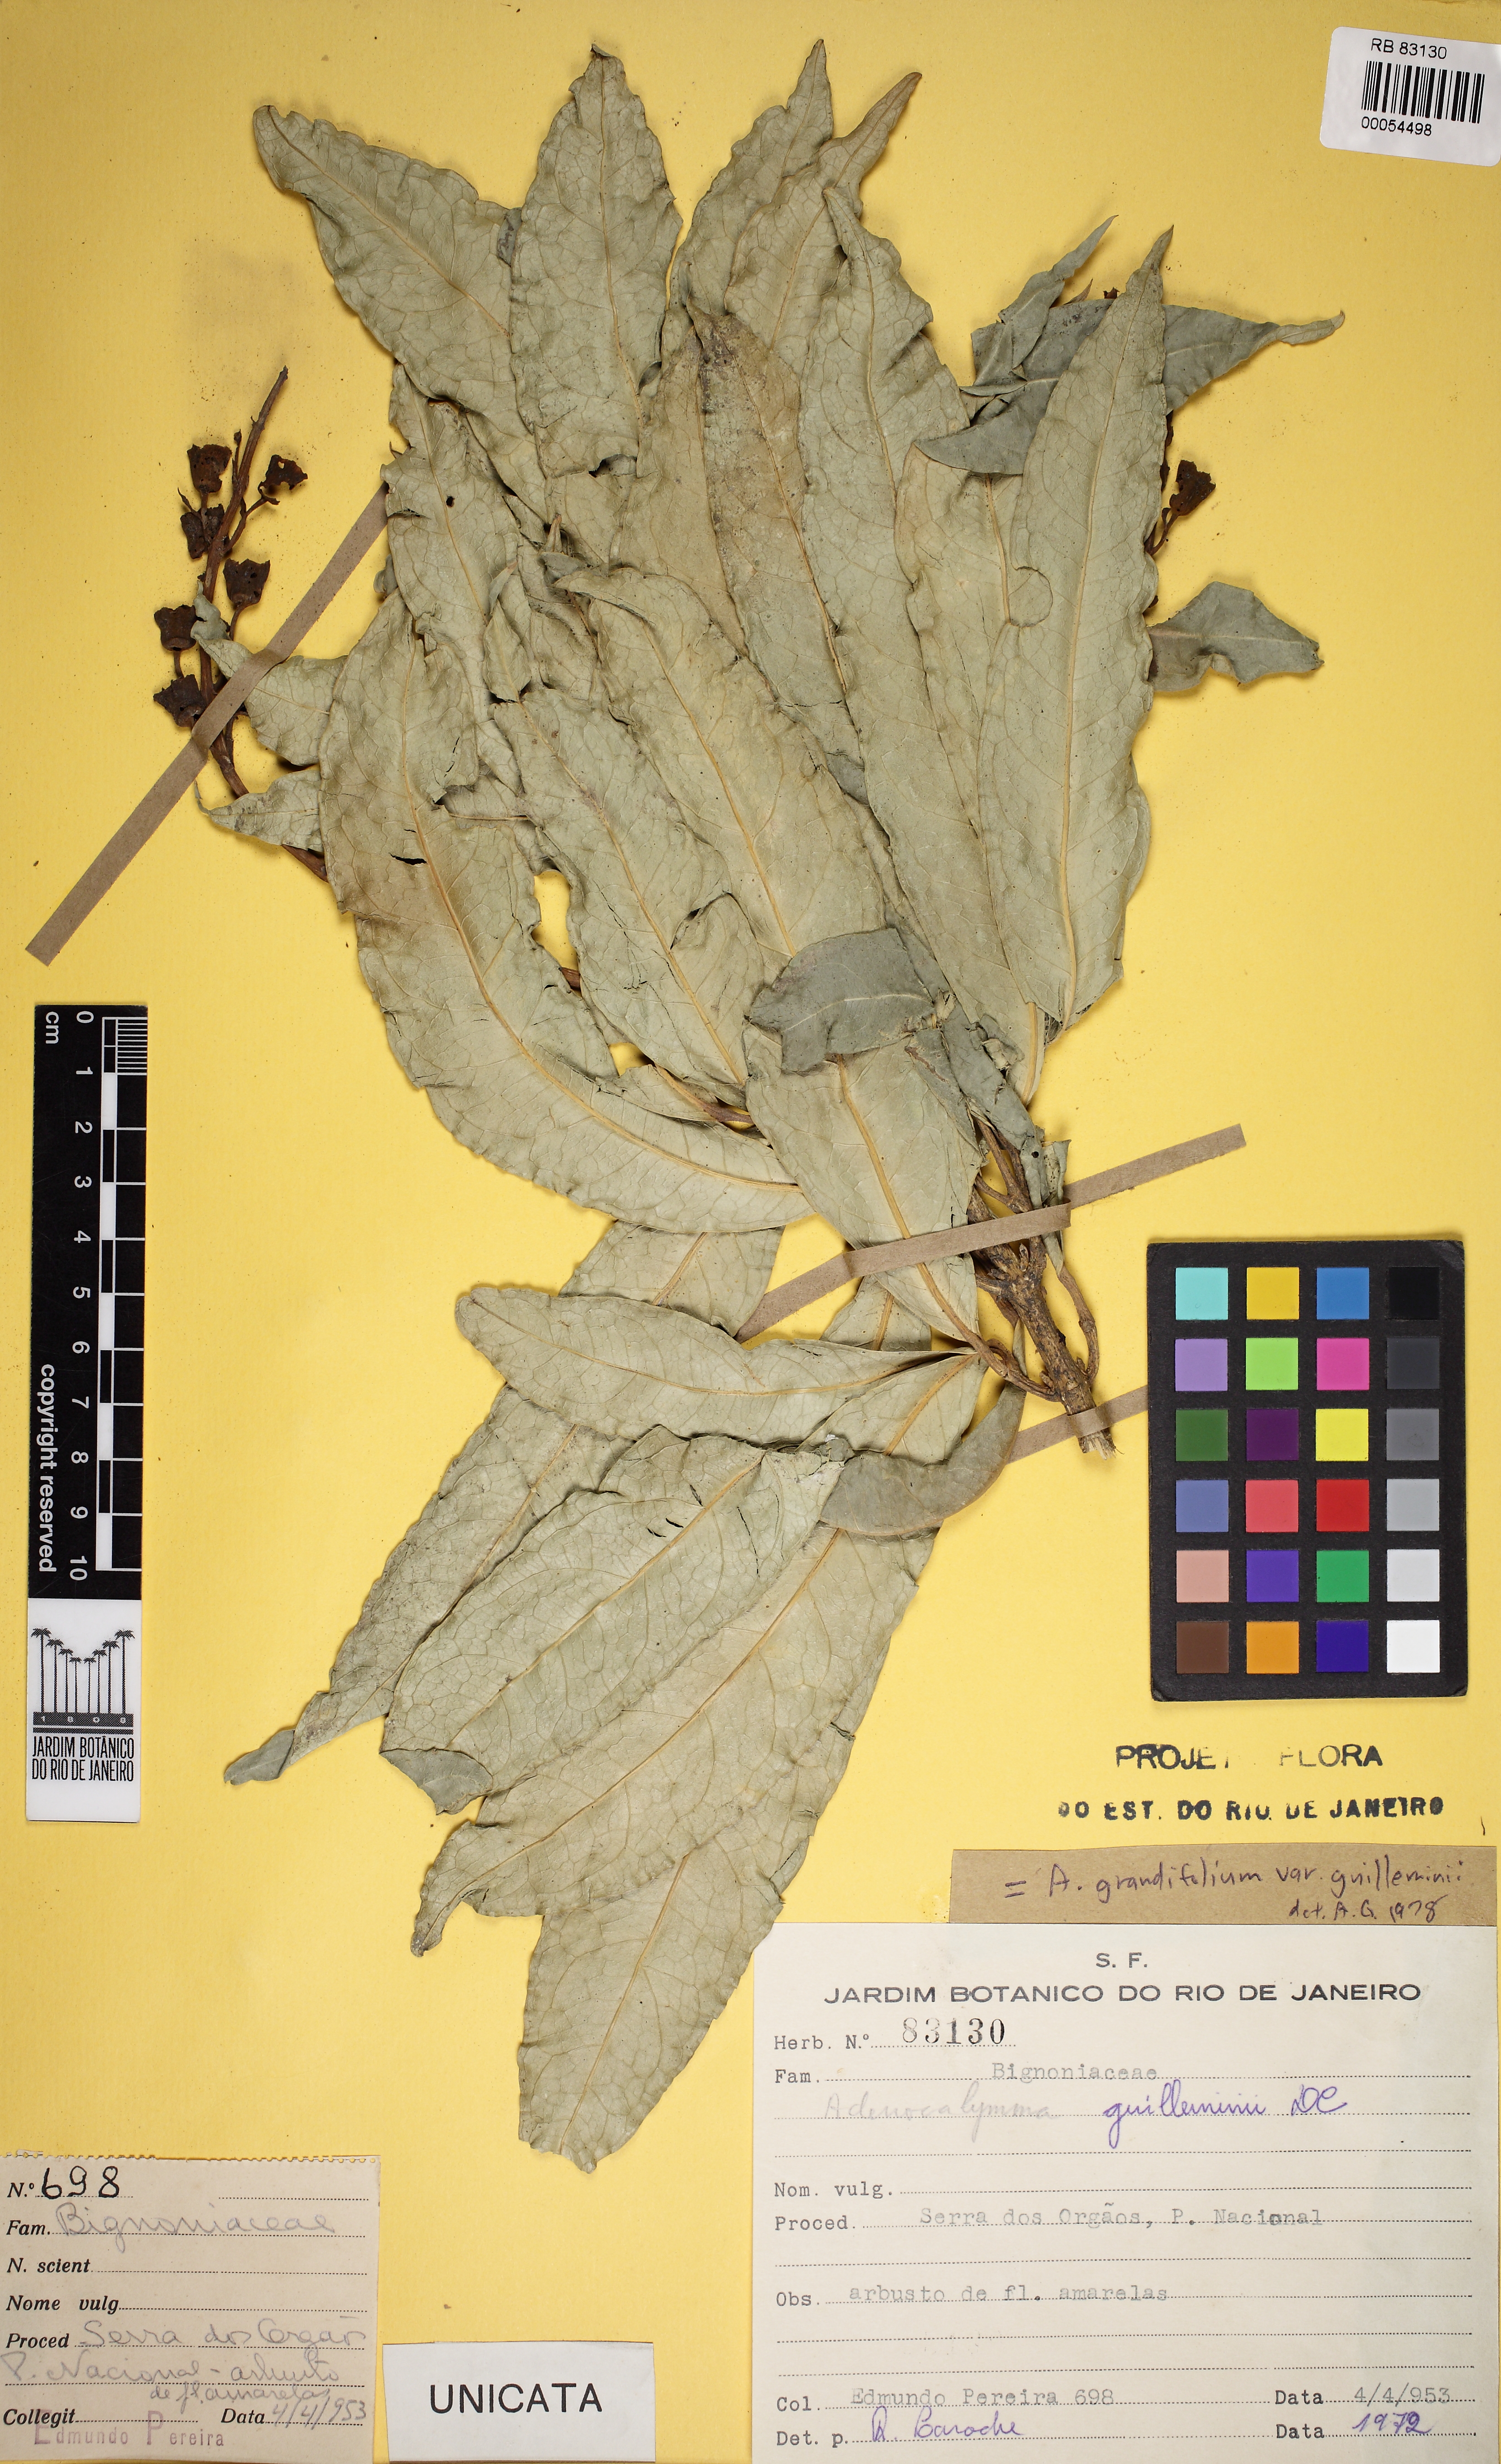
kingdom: Plantae
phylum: Tracheophyta
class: Magnoliopsida
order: Lamiales
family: Bignoniaceae
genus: Adenocalymma
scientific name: Adenocalymma ternatum
